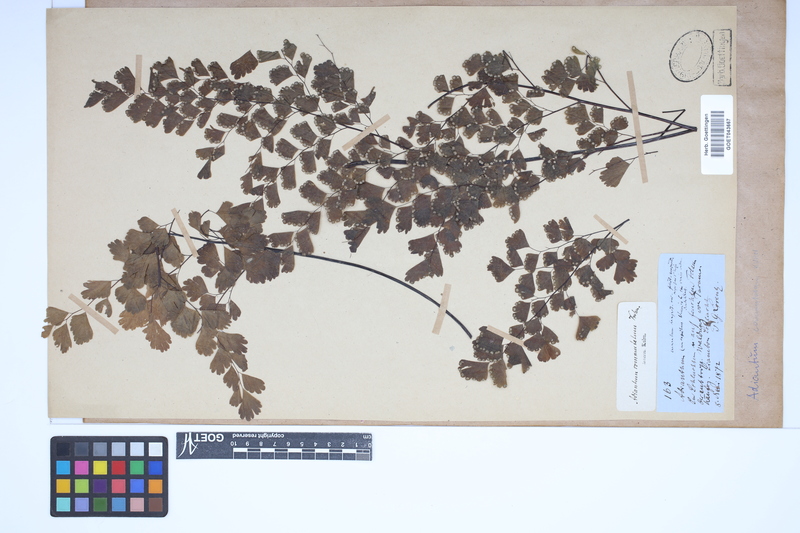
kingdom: Plantae
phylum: Tracheophyta
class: Polypodiopsida
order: Polypodiales
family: Pteridaceae
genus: Adiantum
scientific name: Adiantum concinnum
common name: Brittle maidenhair fern
